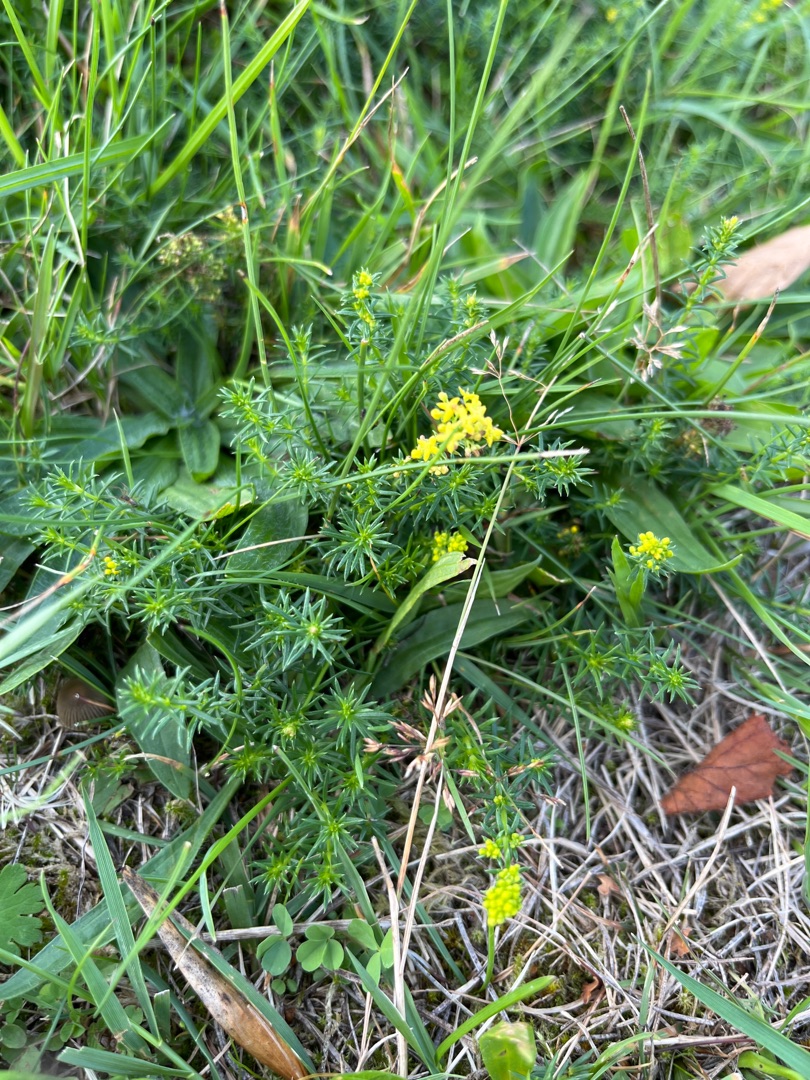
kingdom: Plantae
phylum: Tracheophyta
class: Magnoliopsida
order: Gentianales
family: Rubiaceae
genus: Galium
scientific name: Galium verum
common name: Gul snerre
